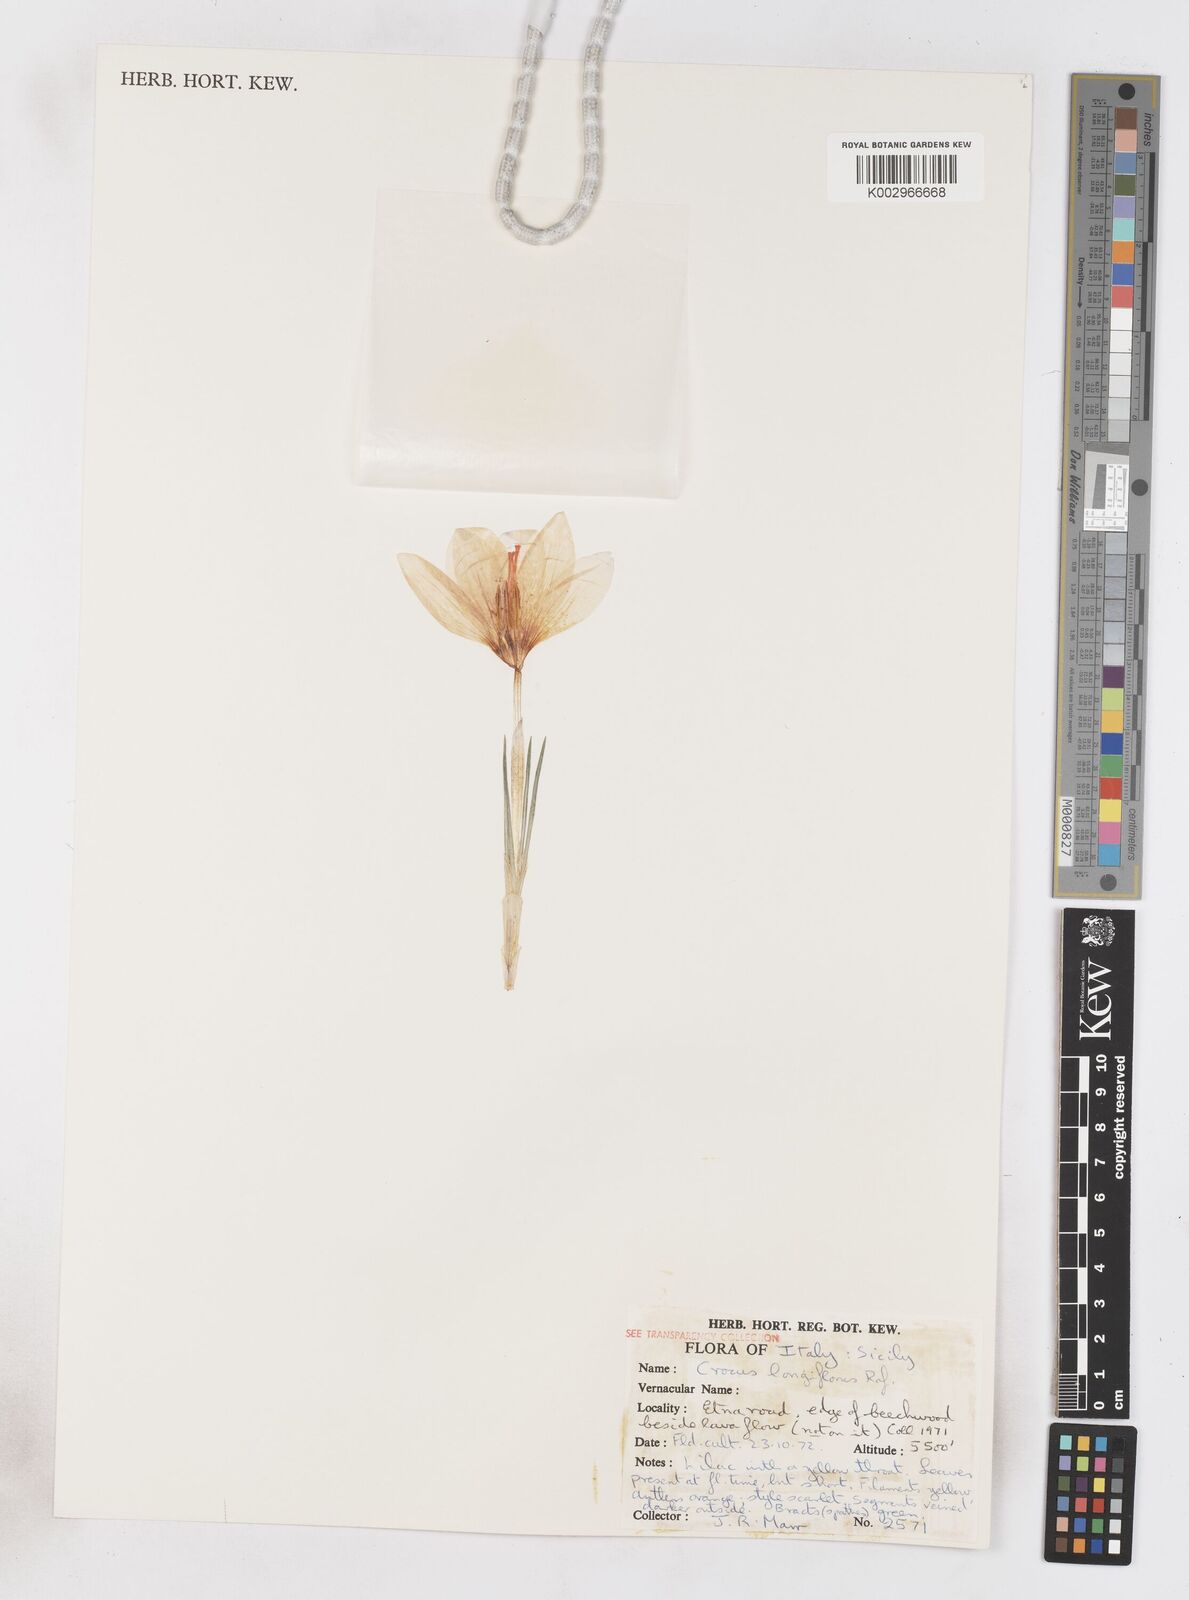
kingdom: Plantae
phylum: Tracheophyta
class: Liliopsida
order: Asparagales
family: Iridaceae
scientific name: Iridaceae
